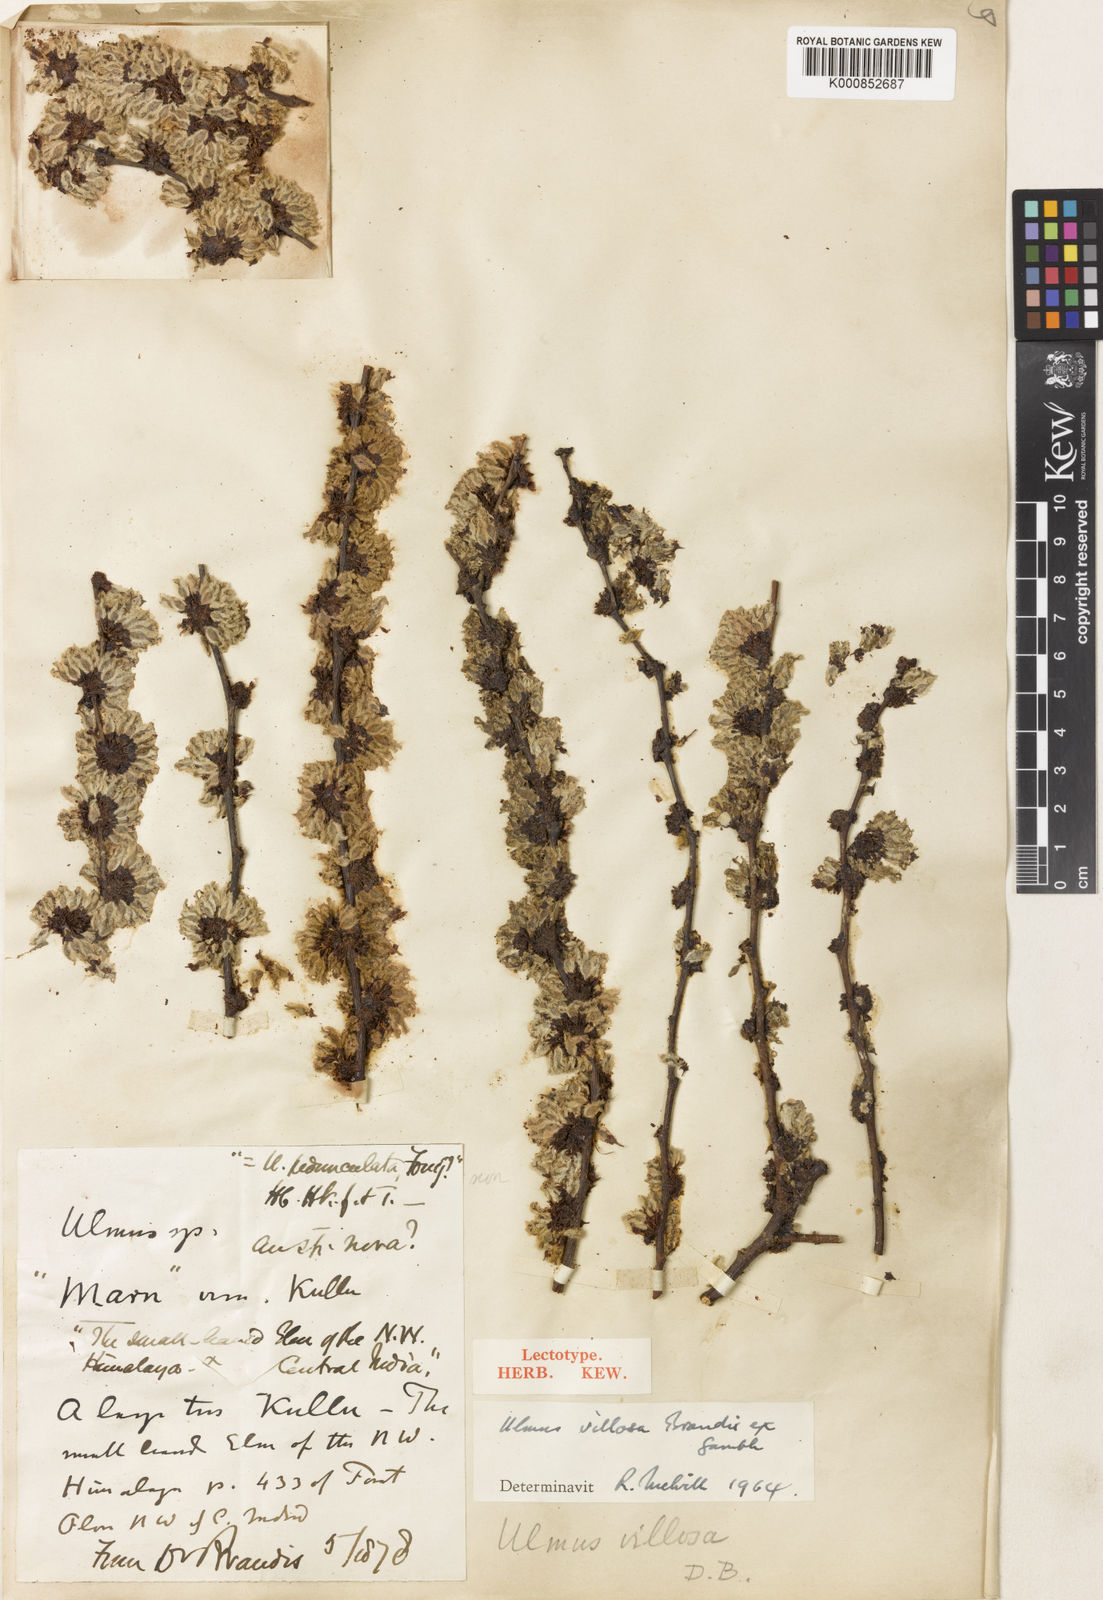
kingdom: Plantae
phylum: Tracheophyta
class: Magnoliopsida
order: Rosales
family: Ulmaceae
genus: Ulmus
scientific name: Ulmus villosa
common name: Cherry-bark elm
